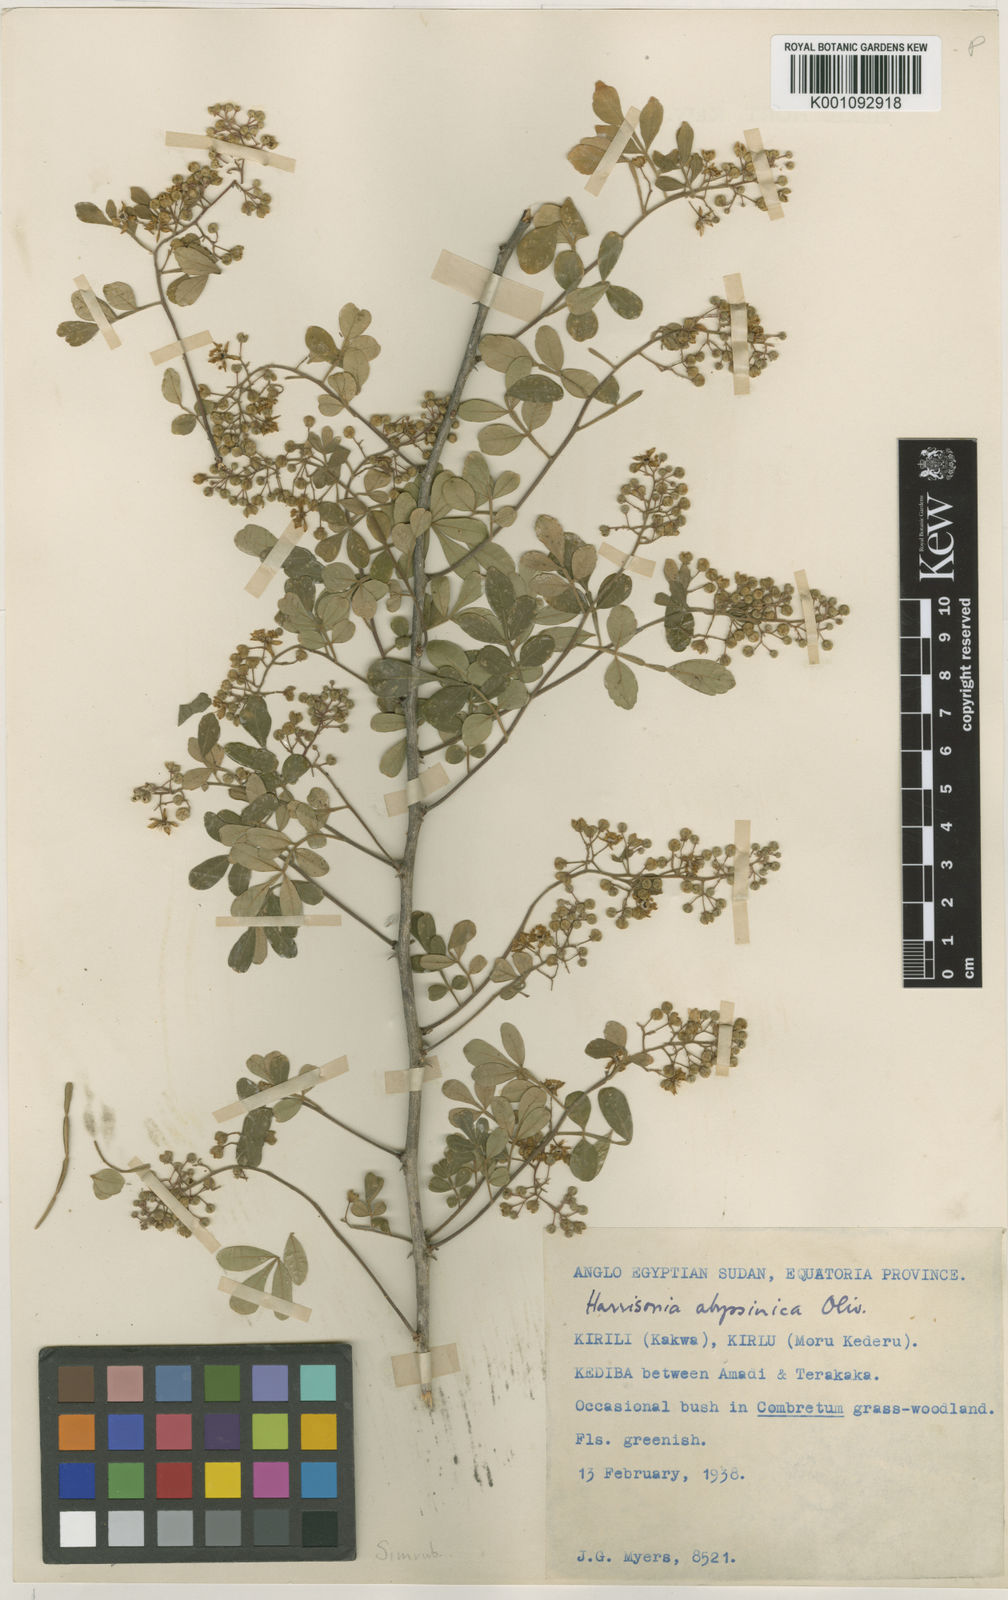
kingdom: Plantae
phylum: Tracheophyta
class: Magnoliopsida
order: Sapindales
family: Rutaceae
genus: Harrisonia
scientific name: Harrisonia abyssinica
